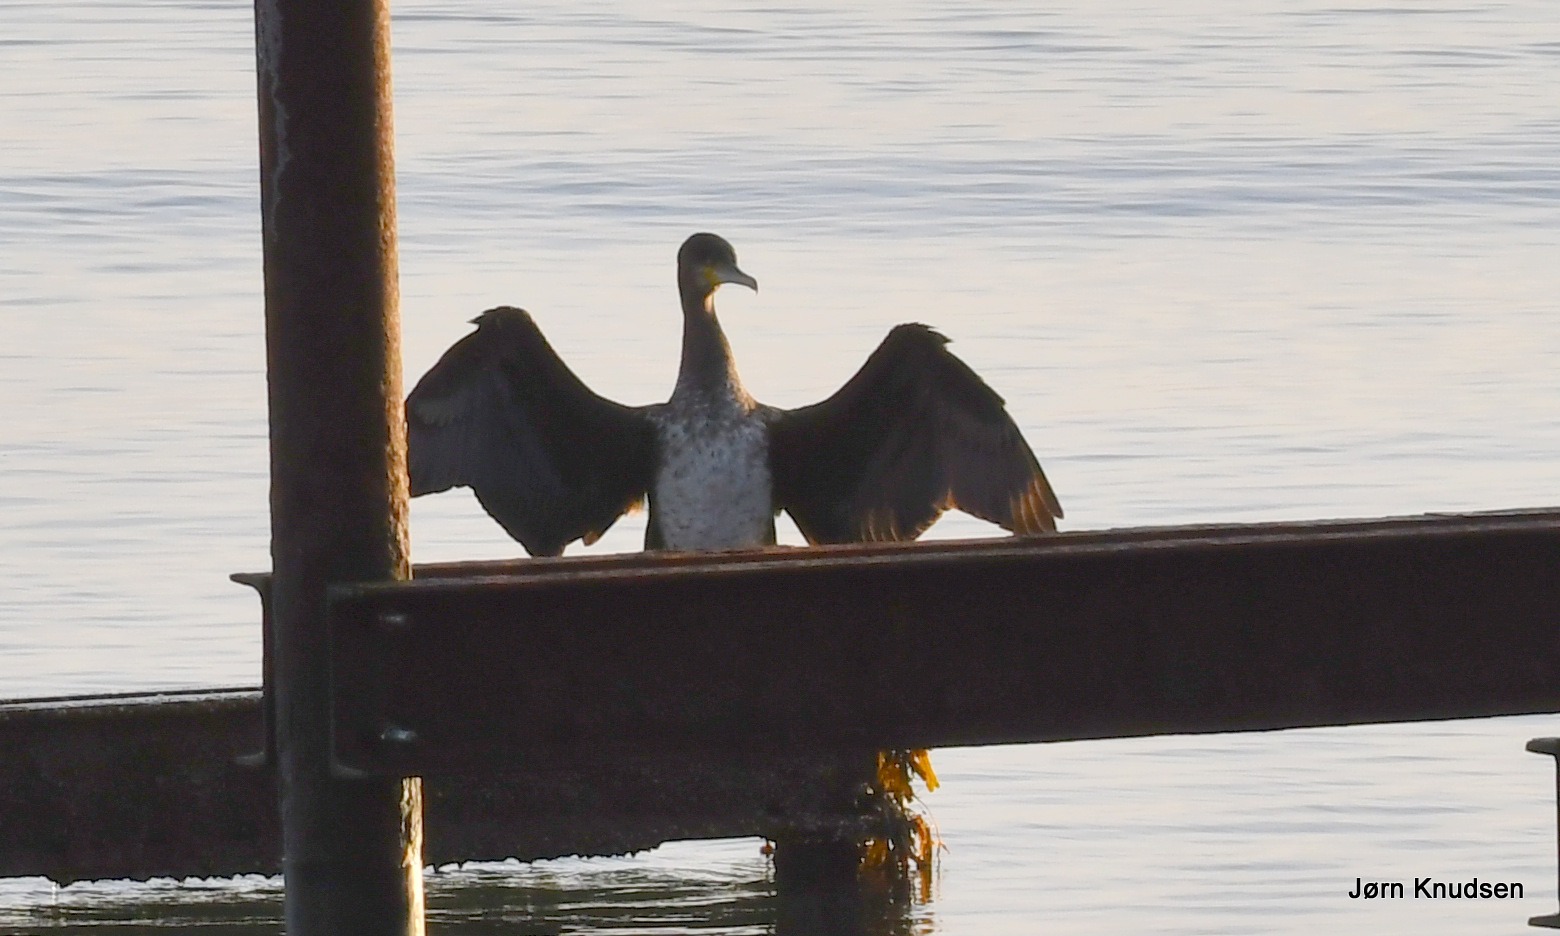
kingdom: Animalia
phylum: Chordata
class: Aves
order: Suliformes
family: Phalacrocoracidae
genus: Phalacrocorax
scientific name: Phalacrocorax carbo
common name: Mellemskarv
